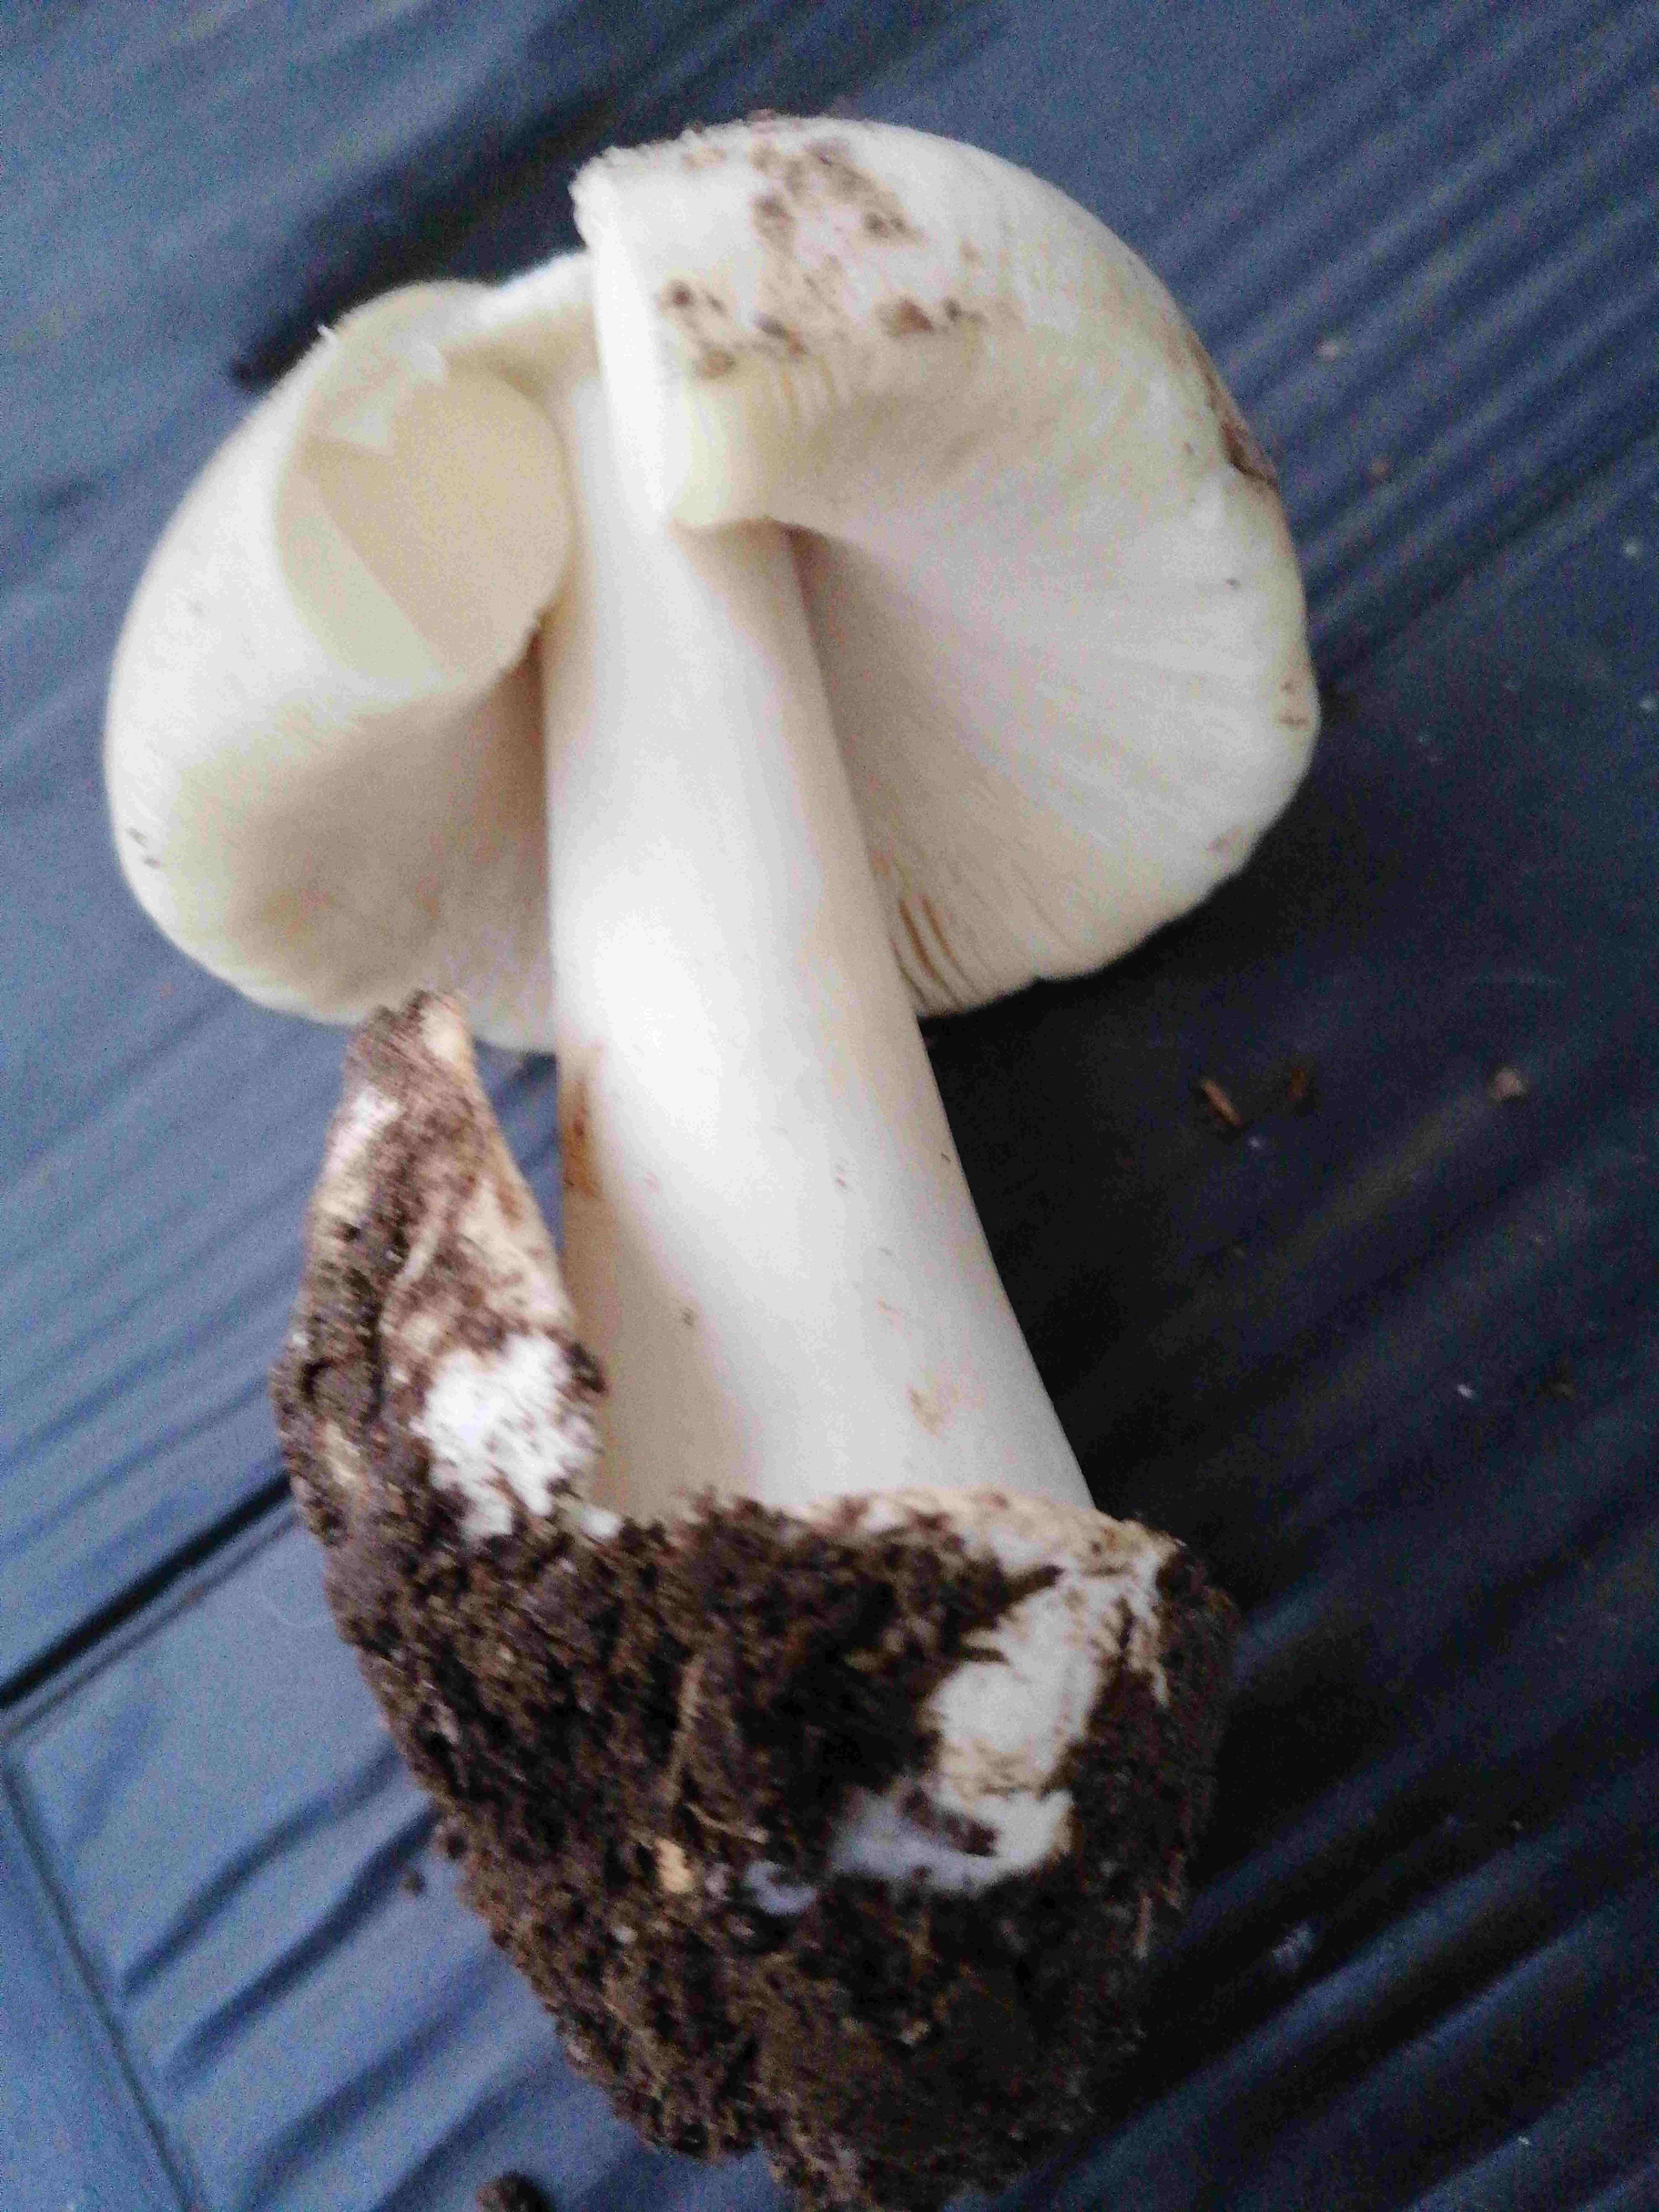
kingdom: Fungi
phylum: Basidiomycota
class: Agaricomycetes
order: Agaricales
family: Pluteaceae
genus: Volvopluteus
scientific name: Volvopluteus gloiocephalus
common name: høj posesvamp
